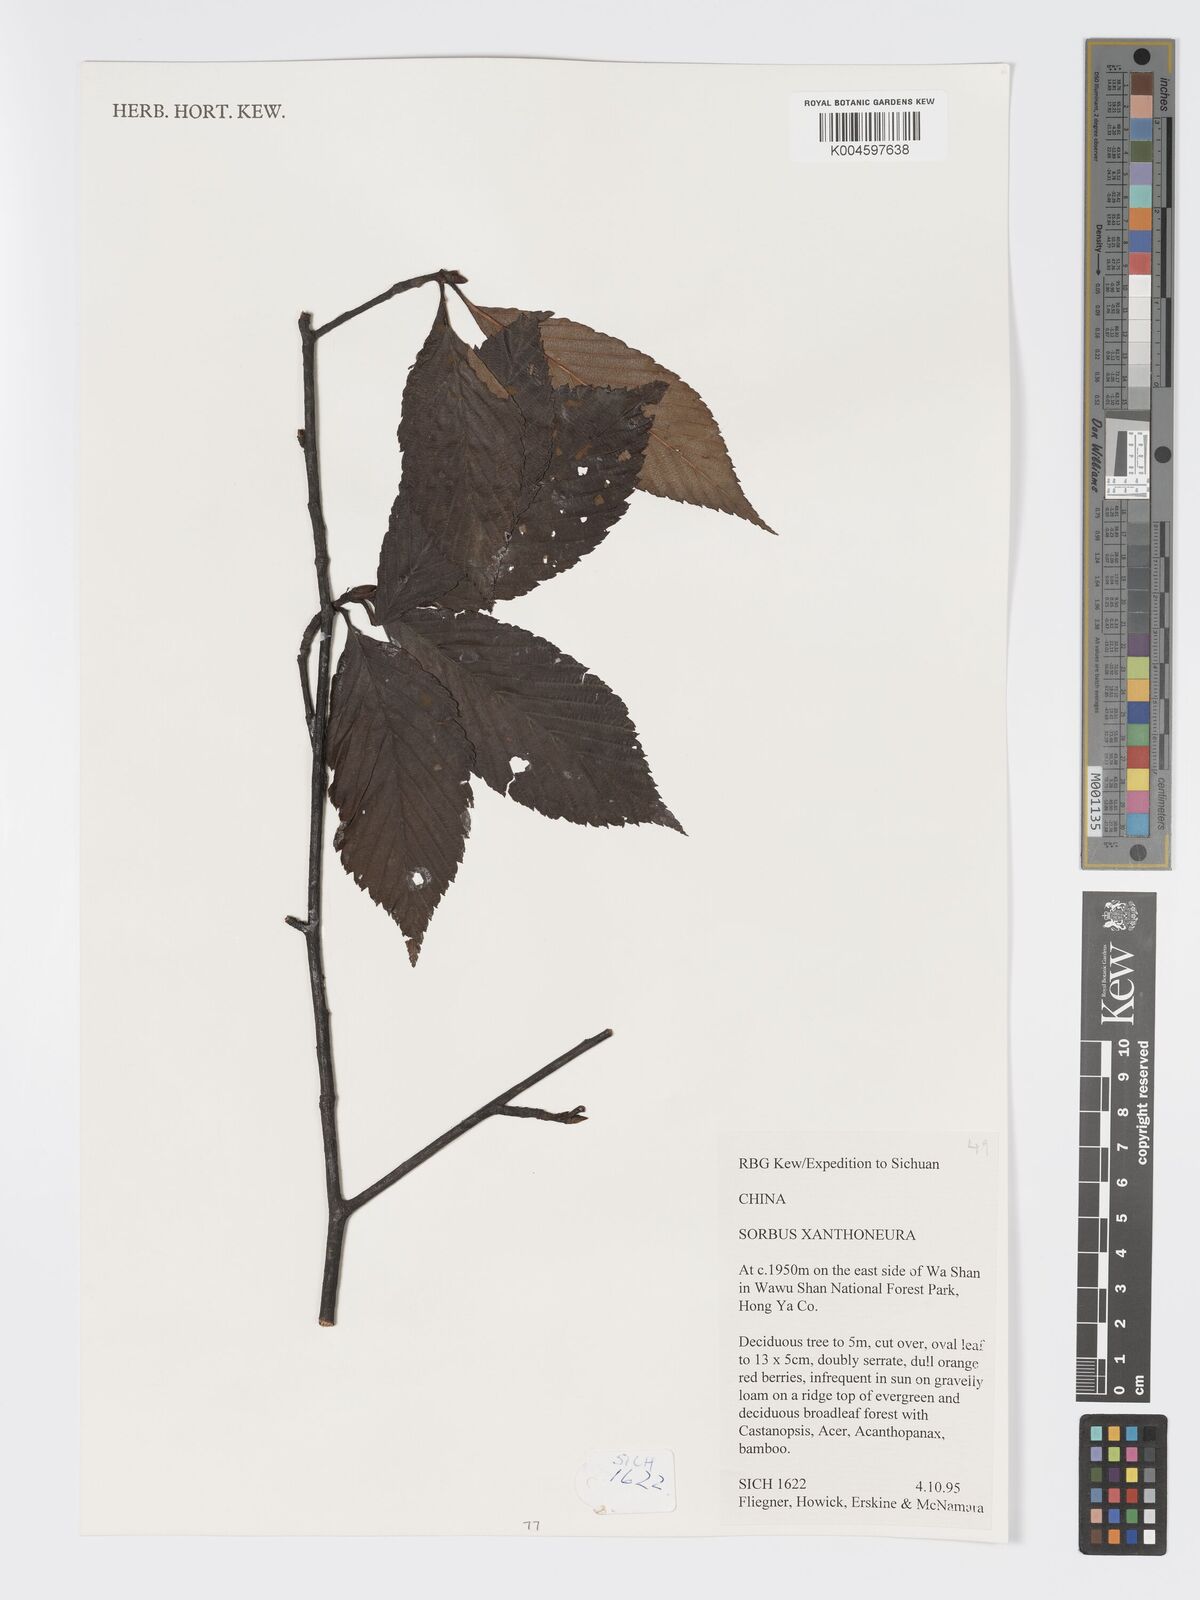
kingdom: Plantae
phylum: Tracheophyta
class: Magnoliopsida
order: Rosales
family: Rosaceae
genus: Sorbus
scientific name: Sorbus hemsleyi
